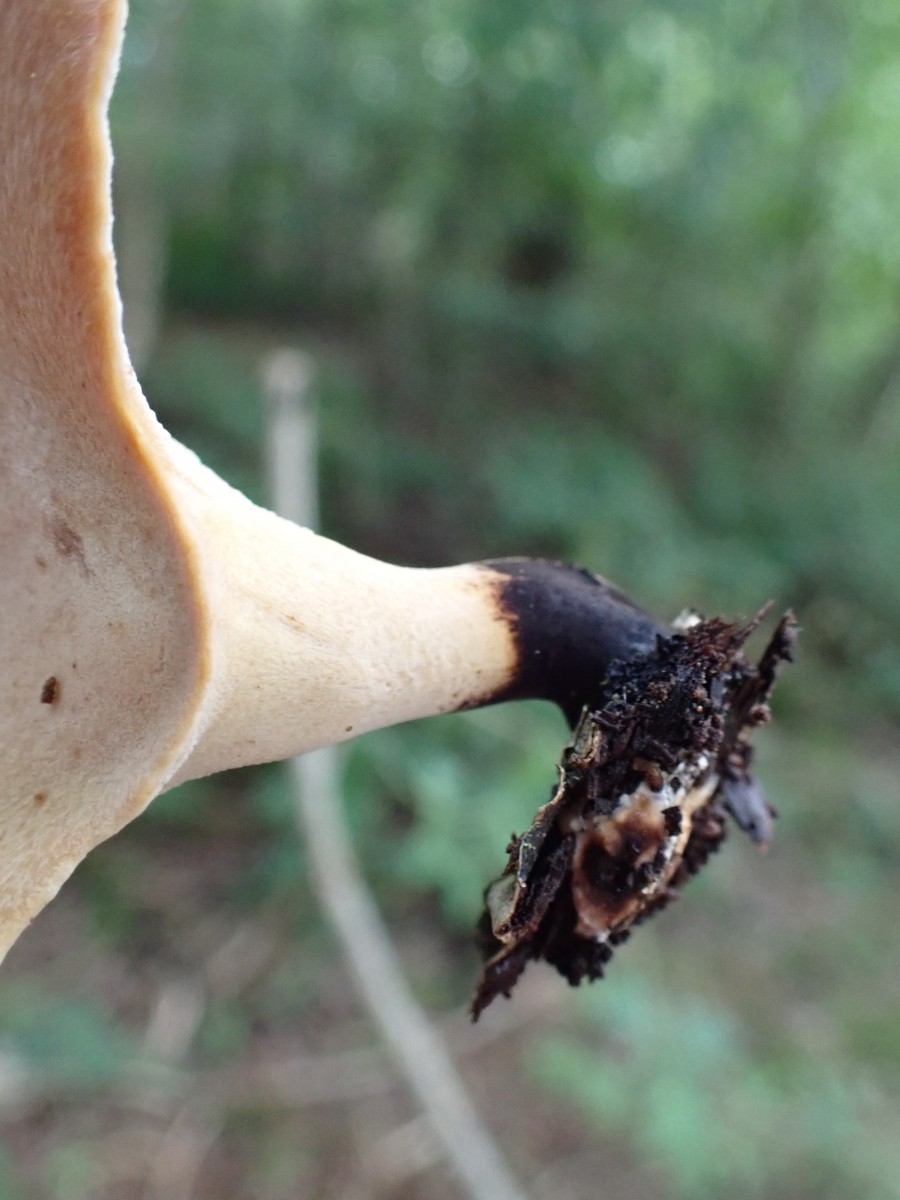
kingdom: Fungi
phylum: Basidiomycota
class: Agaricomycetes
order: Polyporales
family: Polyporaceae
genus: Cerioporus
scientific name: Cerioporus varius
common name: foranderlig stilkporesvamp
